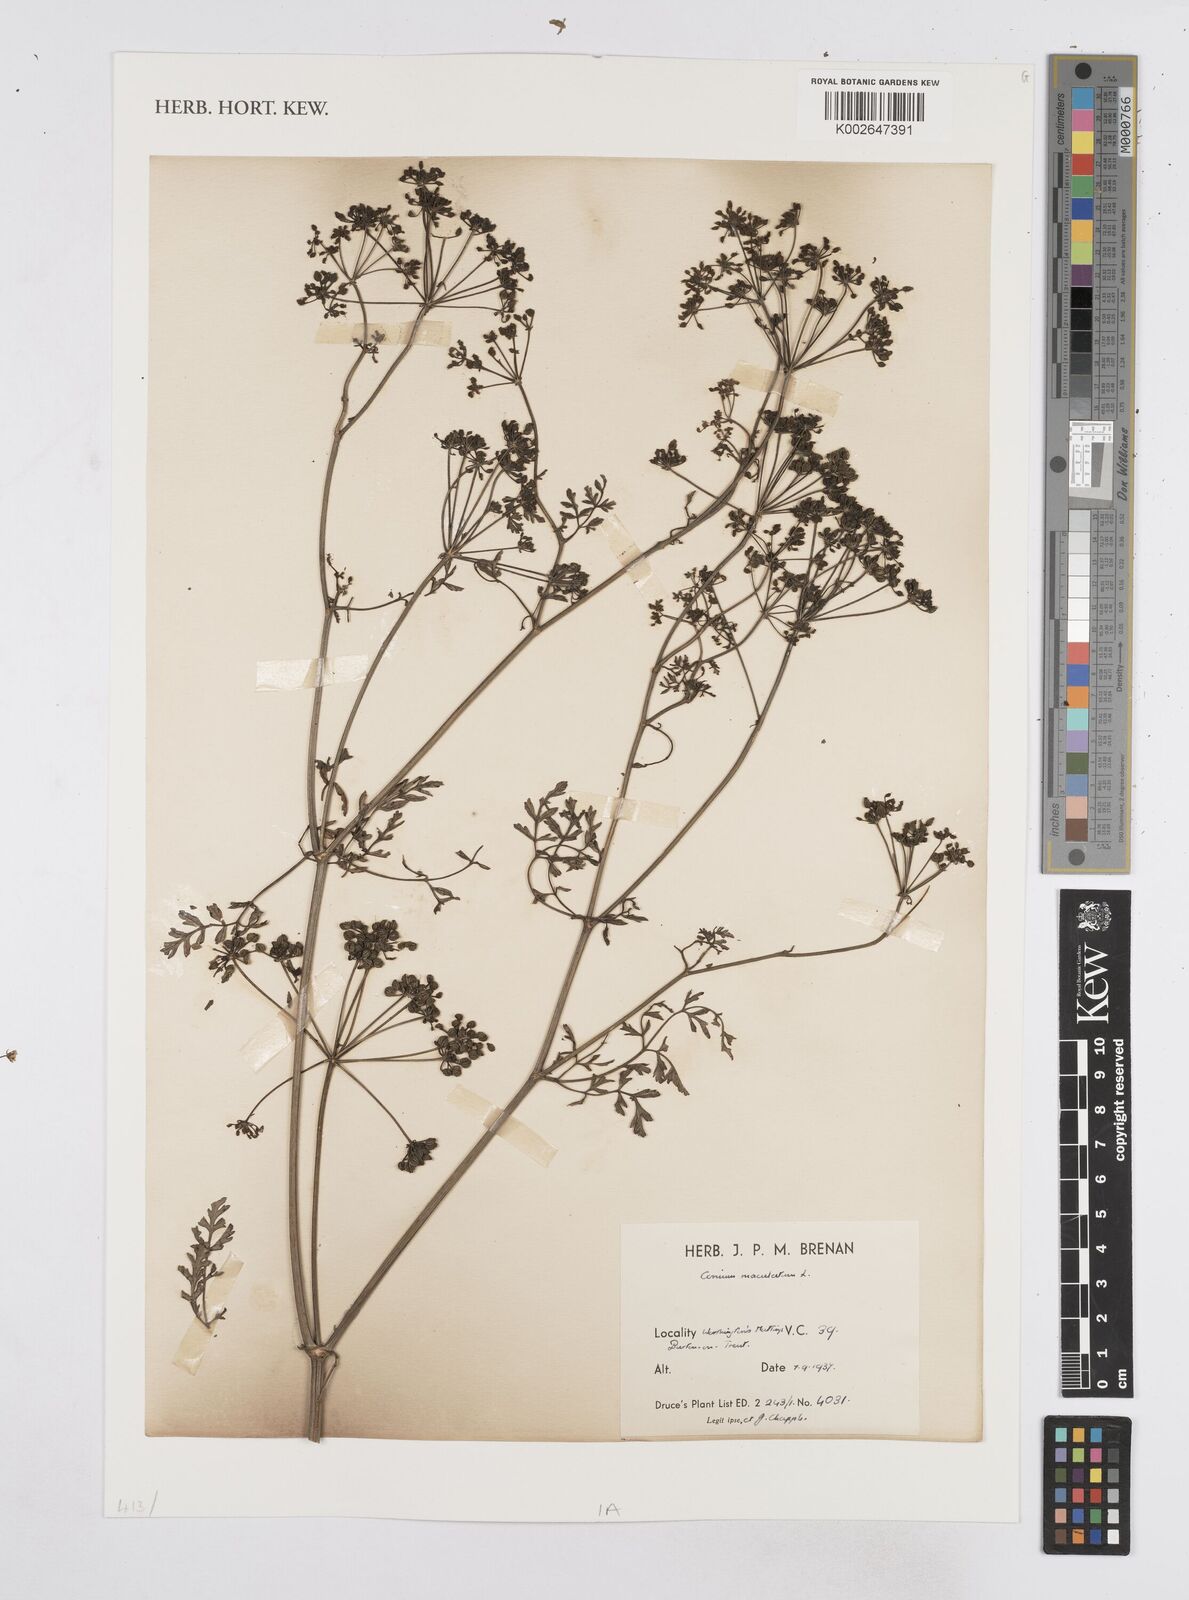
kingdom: Plantae
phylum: Tracheophyta
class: Magnoliopsida
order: Apiales
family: Apiaceae
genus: Conium
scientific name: Conium maculatum
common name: Hemlock
